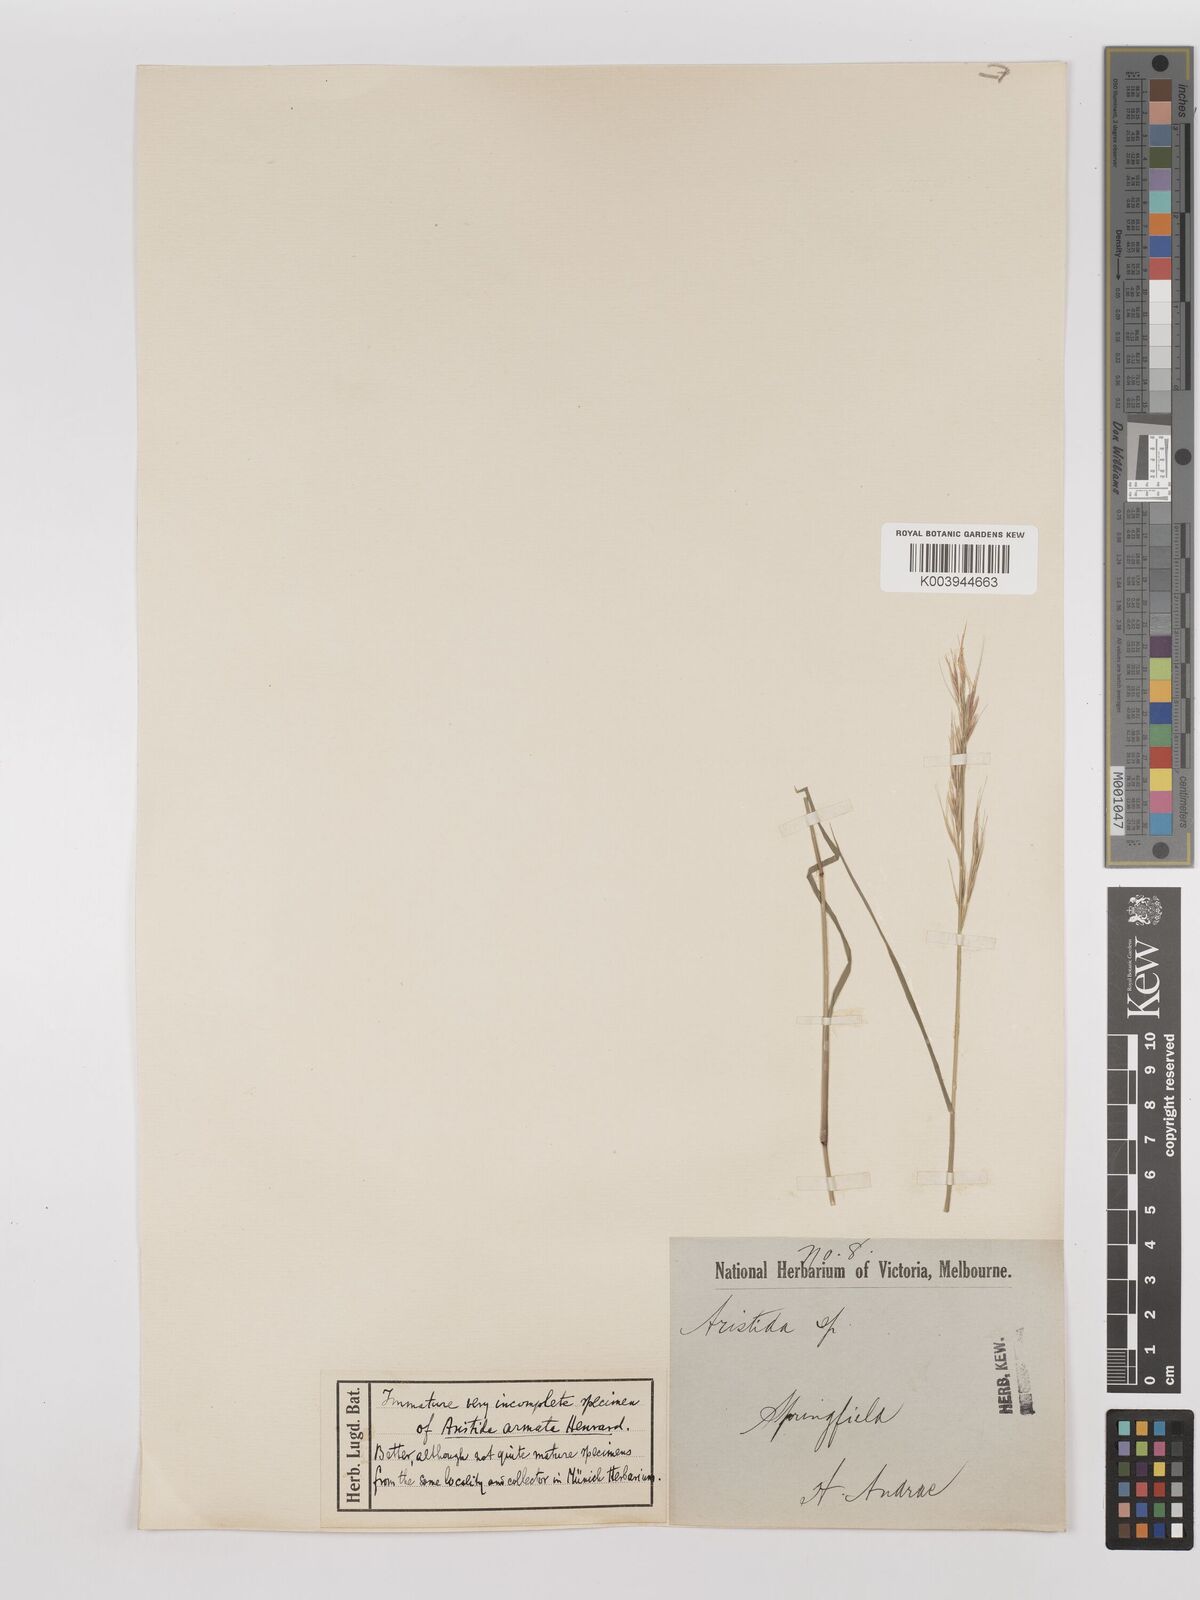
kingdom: Plantae
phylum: Tracheophyta
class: Liliopsida
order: Poales
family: Poaceae
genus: Aristida
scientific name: Aristida calycina
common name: Dark wire grass
